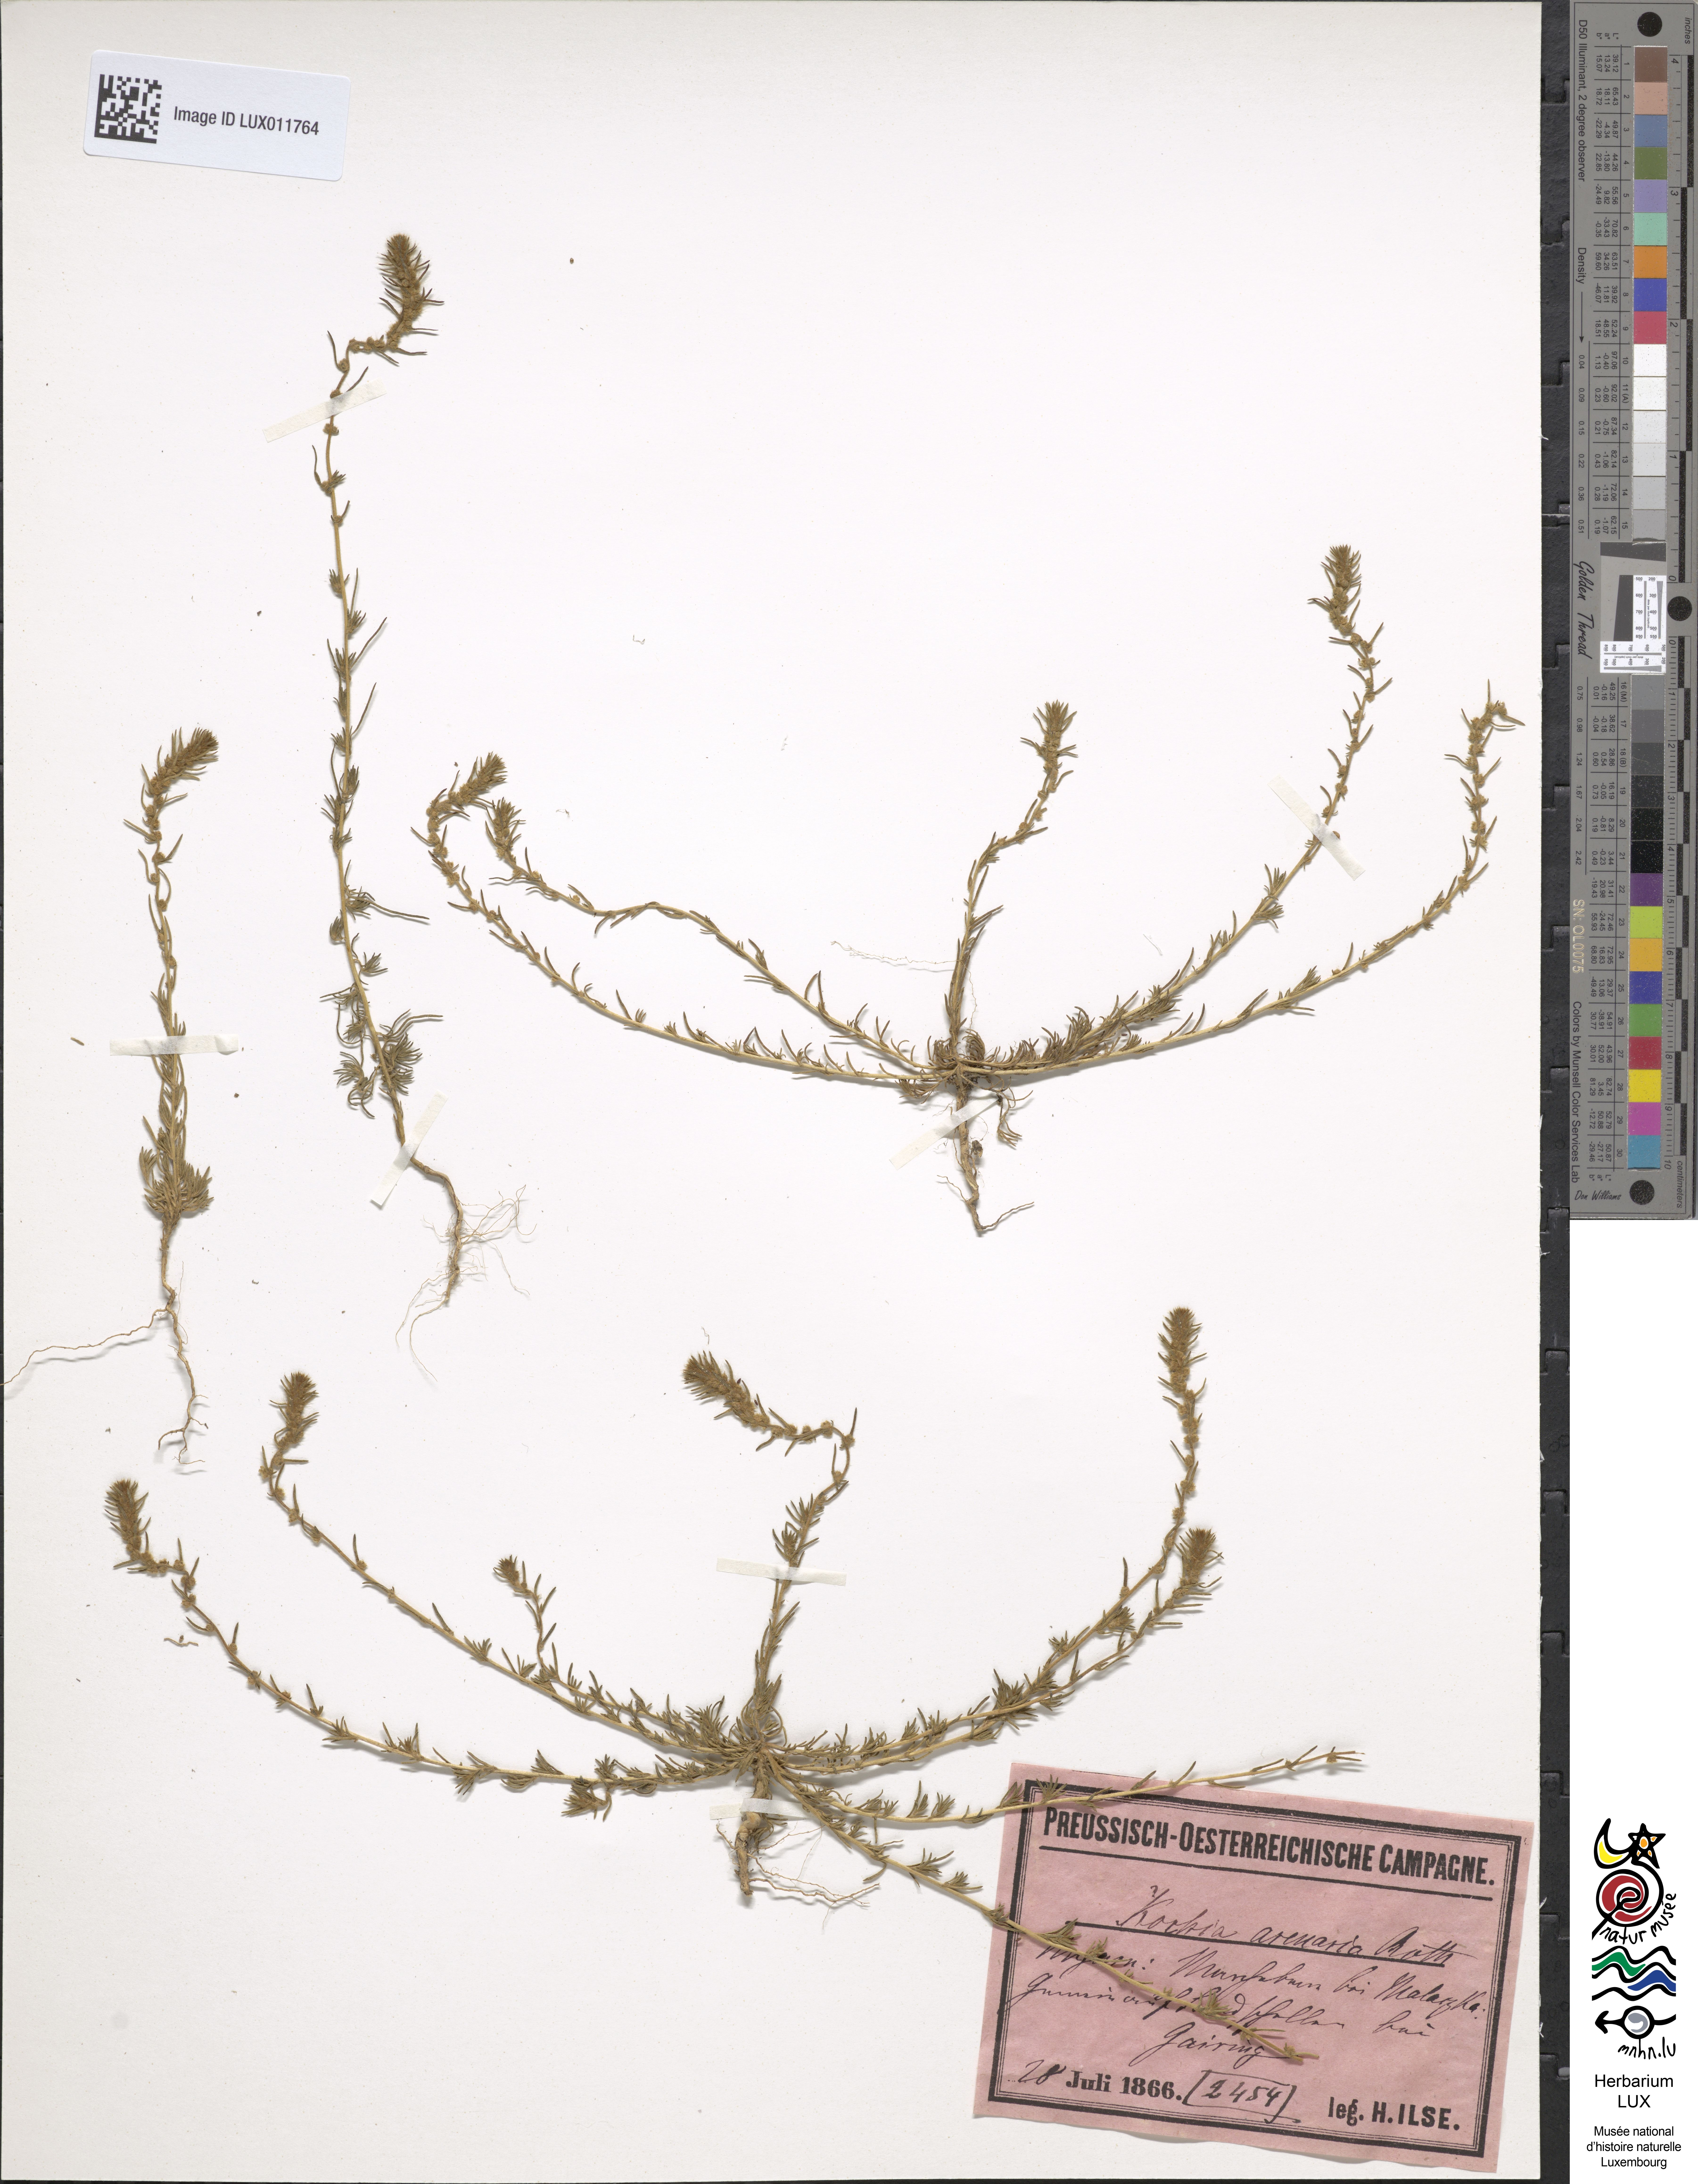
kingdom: Plantae
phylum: Tracheophyta
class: Magnoliopsida
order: Caryophyllales
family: Amaranthaceae
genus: Bassia
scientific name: Bassia laniflora
